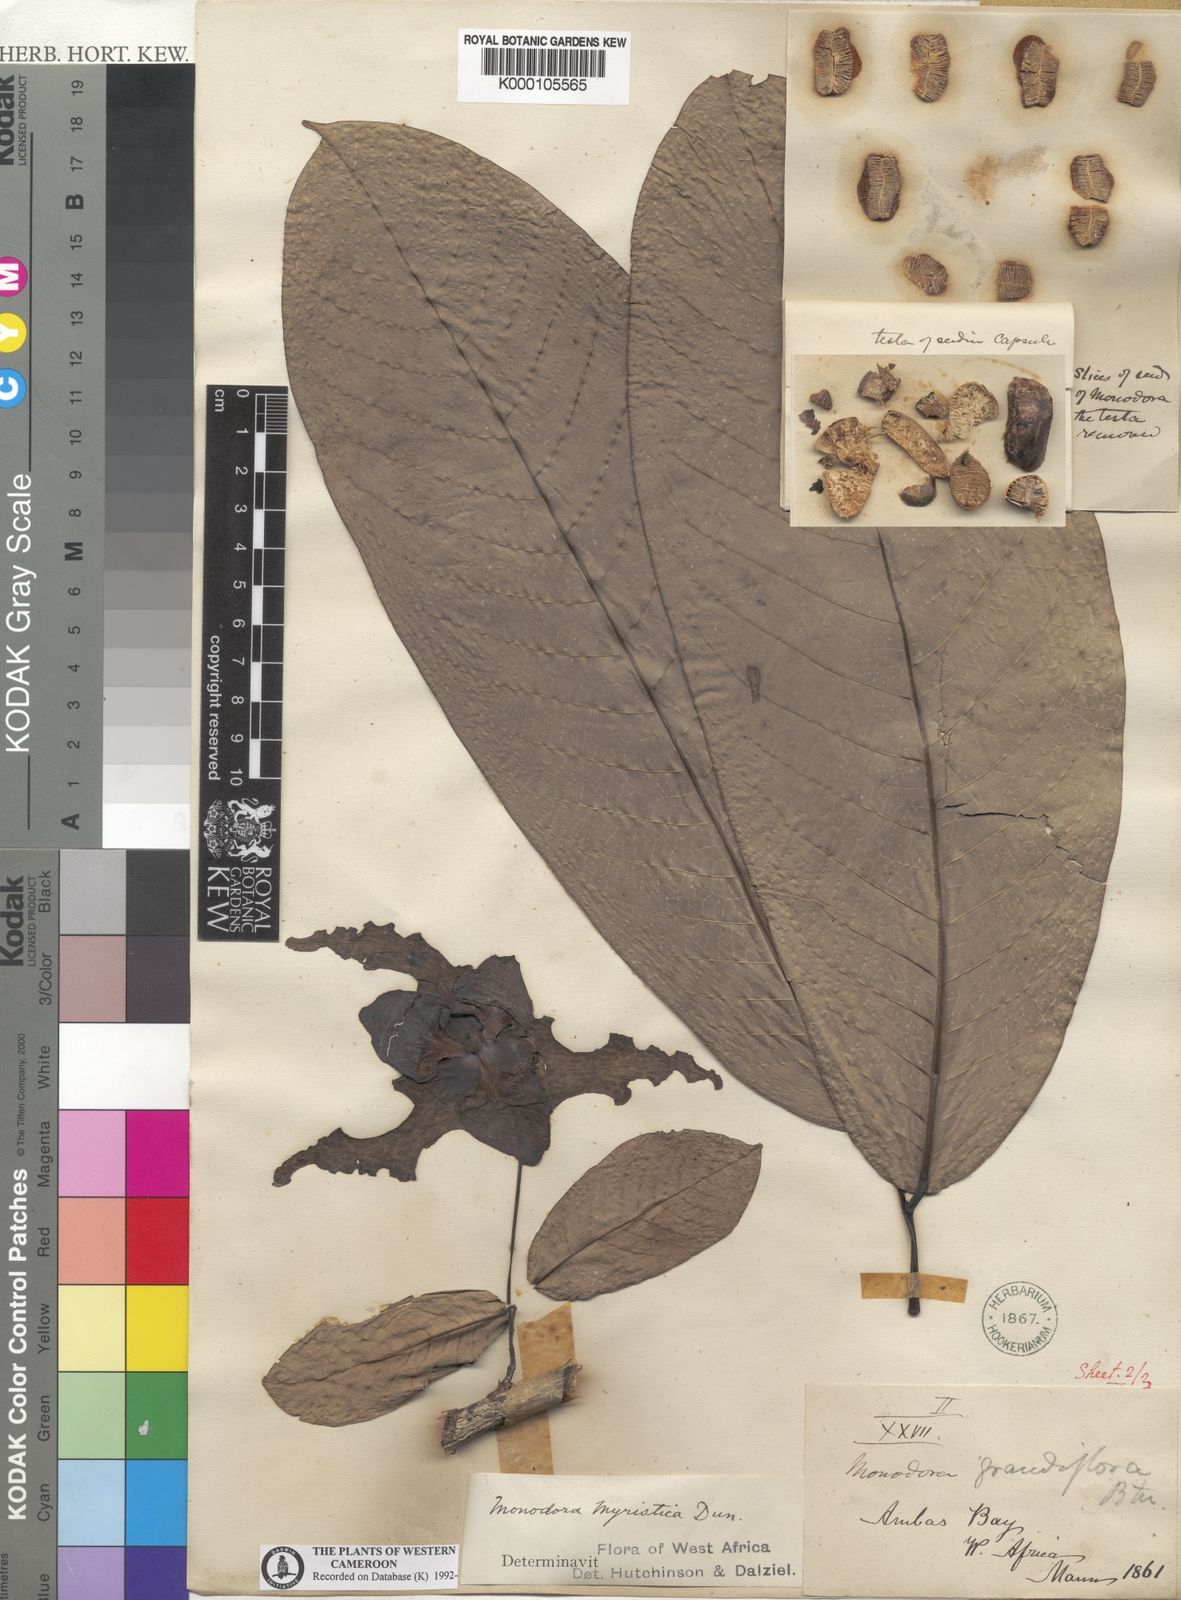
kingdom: Plantae
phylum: Tracheophyta
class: Magnoliopsida
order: Magnoliales
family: Annonaceae
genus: Monodora
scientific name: Monodora myristica
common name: African nutmeg
